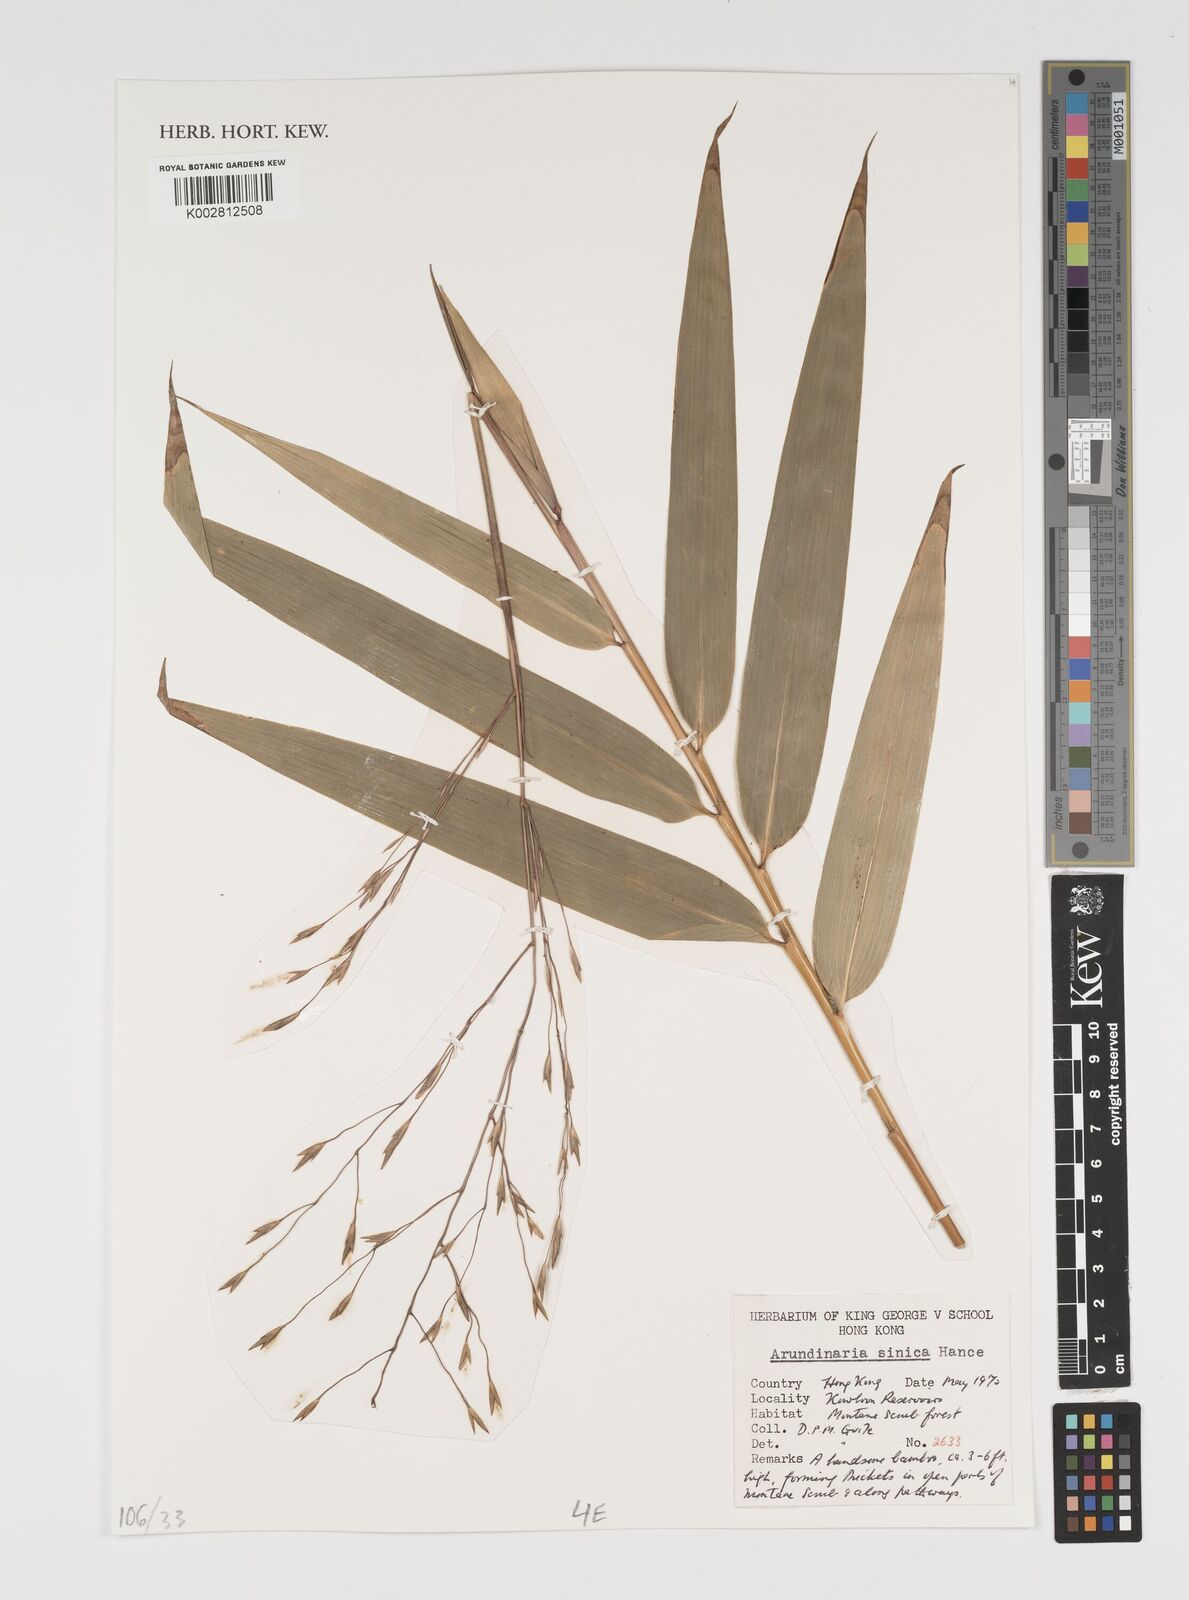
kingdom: Plantae
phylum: Tracheophyta
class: Liliopsida
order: Poales
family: Poaceae
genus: Indocalamus
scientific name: Indocalamus sinicus
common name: Chinese cane
